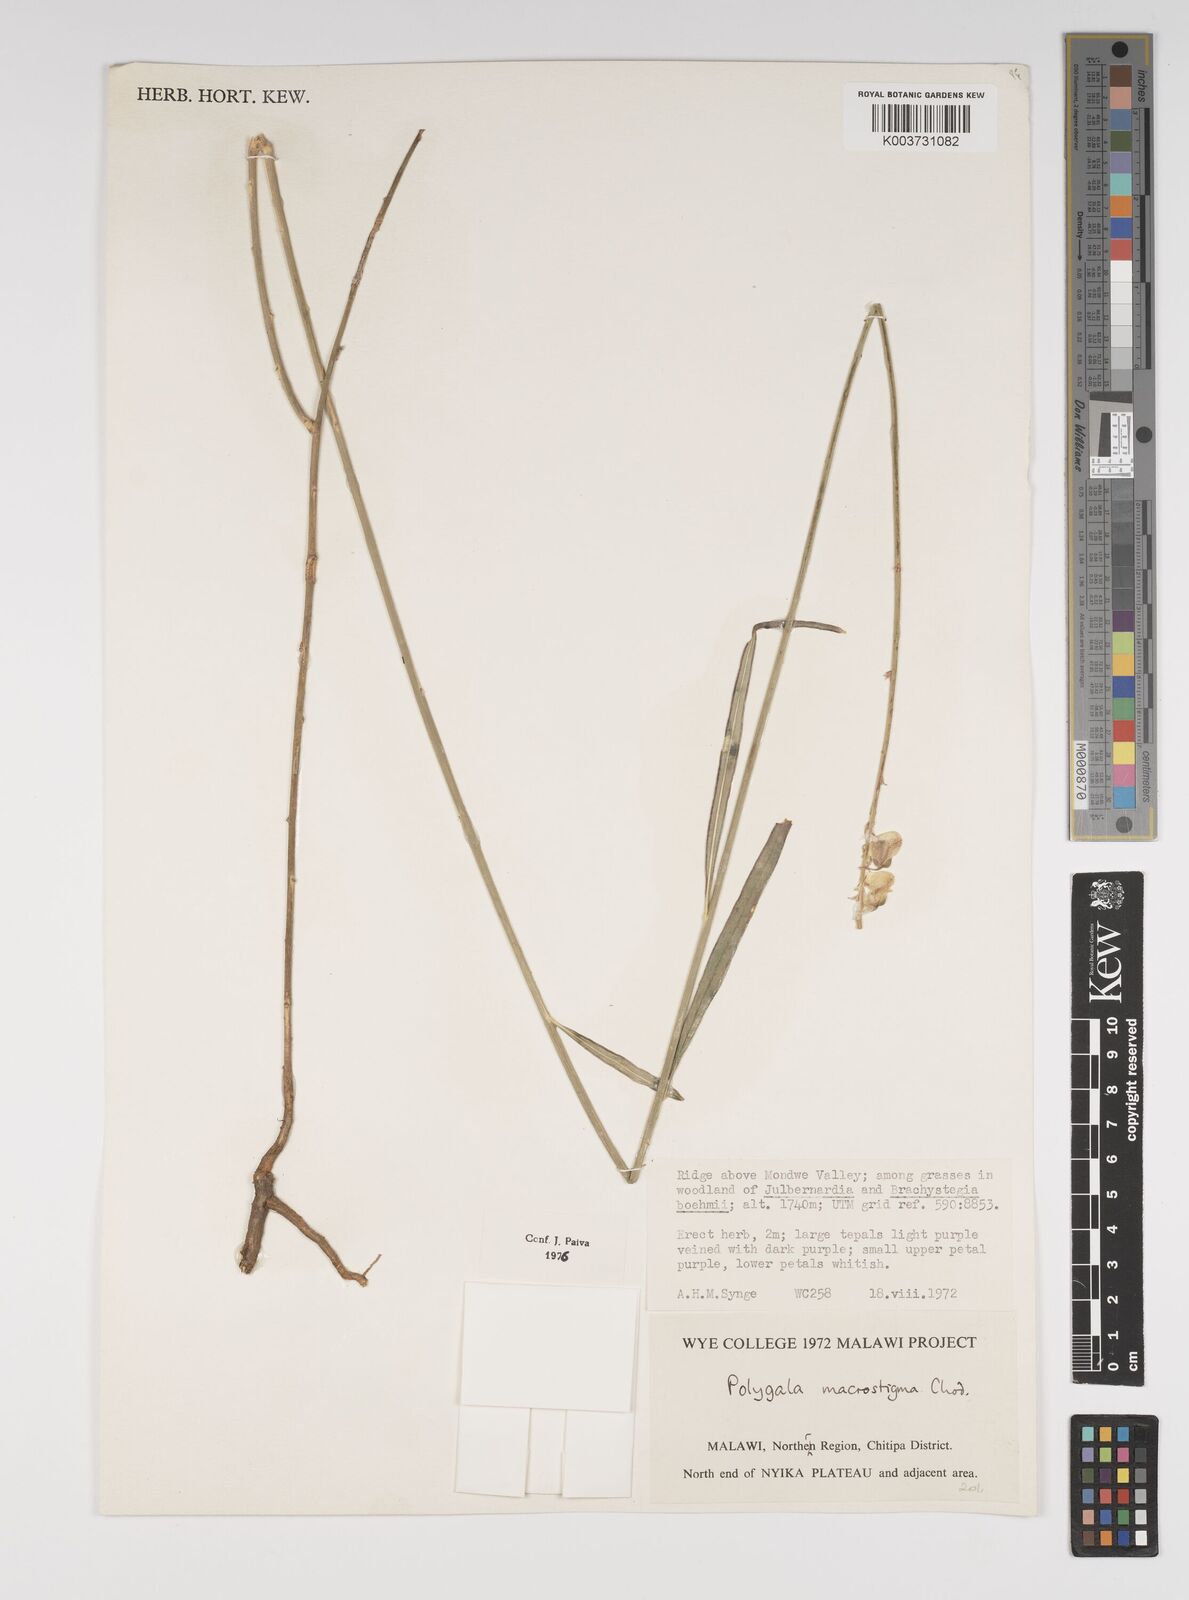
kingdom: Plantae
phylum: Tracheophyta
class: Magnoliopsida
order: Fabales
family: Polygalaceae
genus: Polygala
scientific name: Polygala macrostigma
